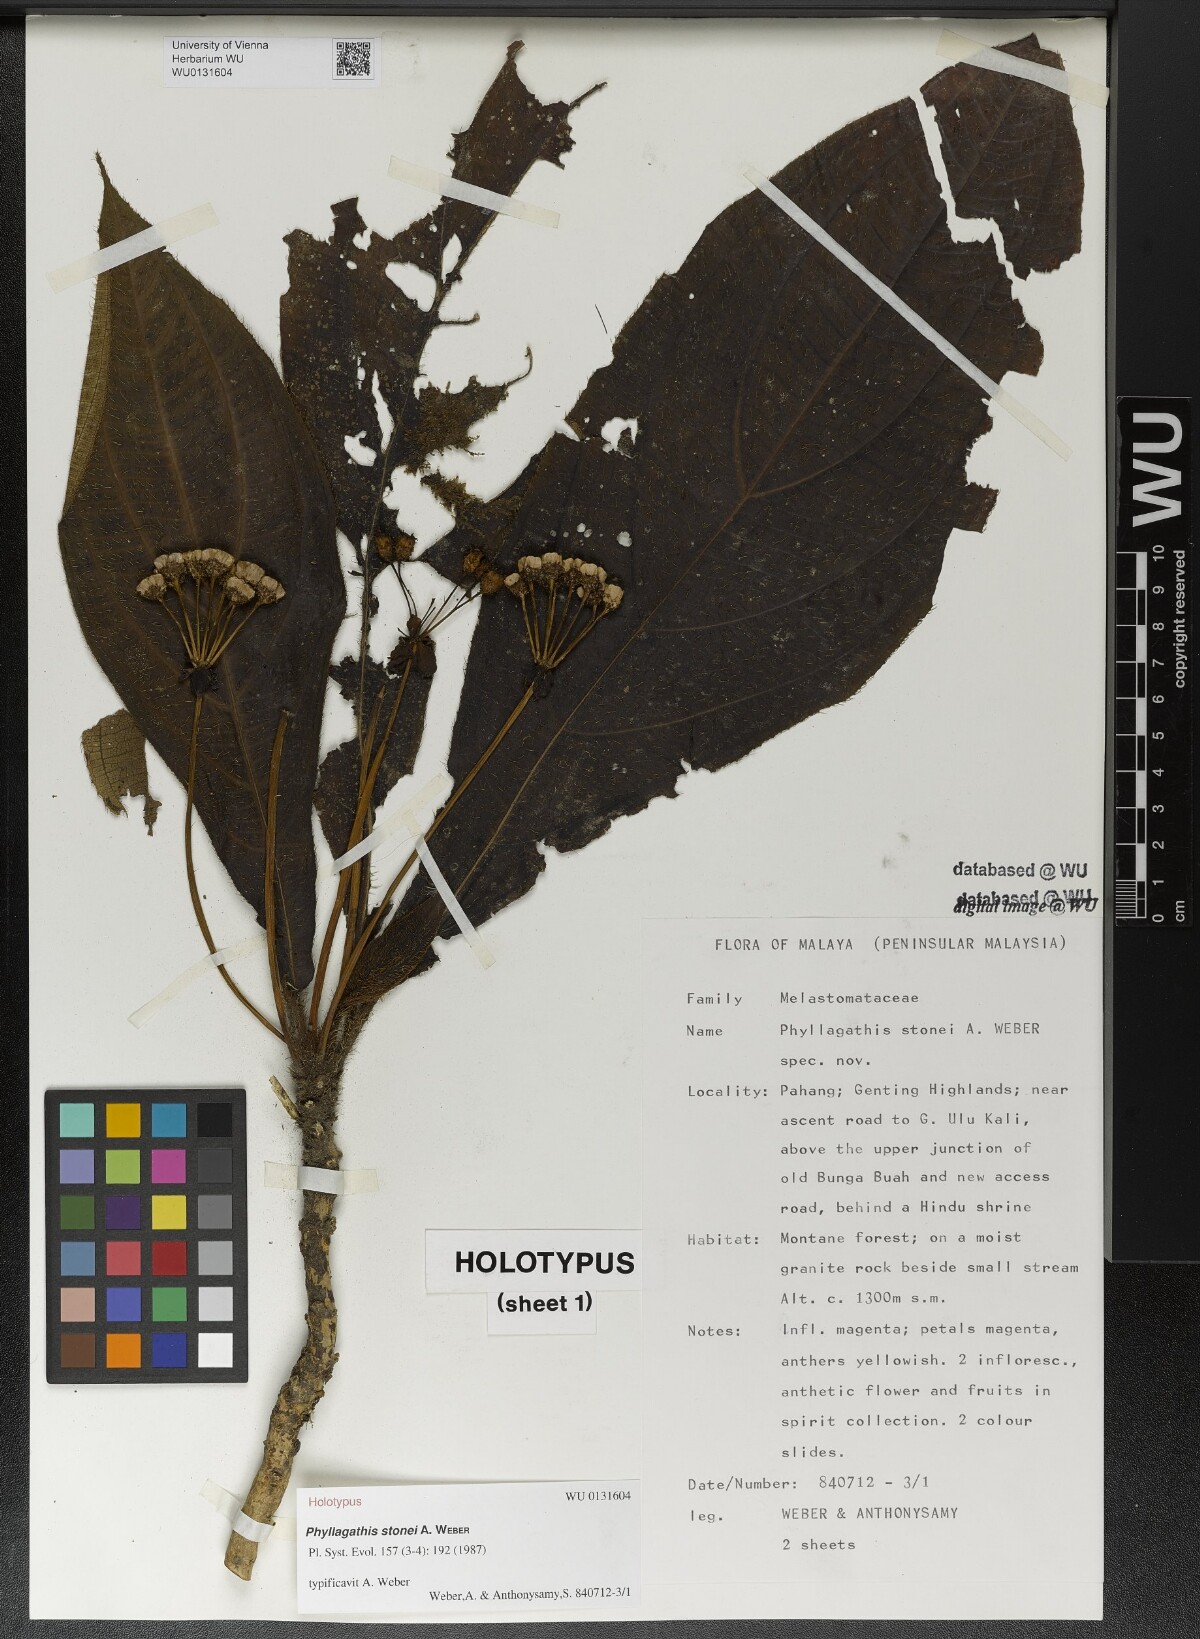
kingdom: Plantae
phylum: Tracheophyta
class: Magnoliopsida
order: Myrtales
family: Melastomataceae
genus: Phyllagathis
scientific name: Phyllagathis tuberculata
